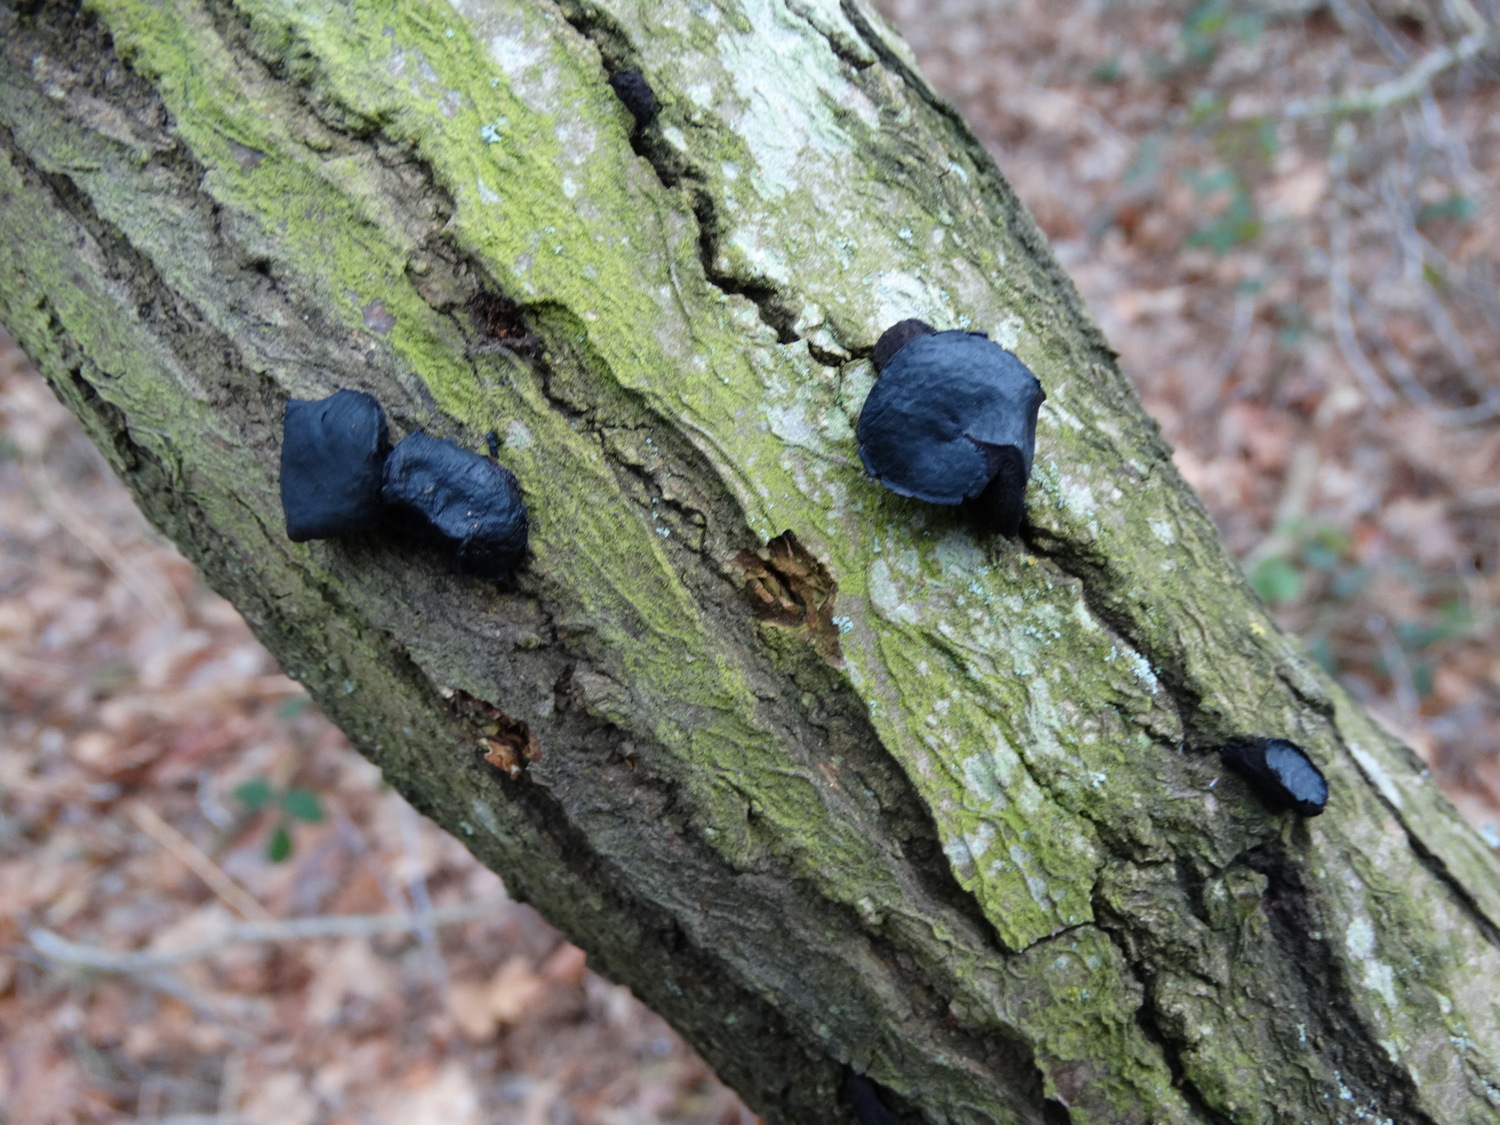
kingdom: Fungi
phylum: Ascomycota
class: Leotiomycetes
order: Phacidiales
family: Phacidiaceae
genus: Bulgaria
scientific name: Bulgaria inquinans
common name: afsmittende topsvamp
